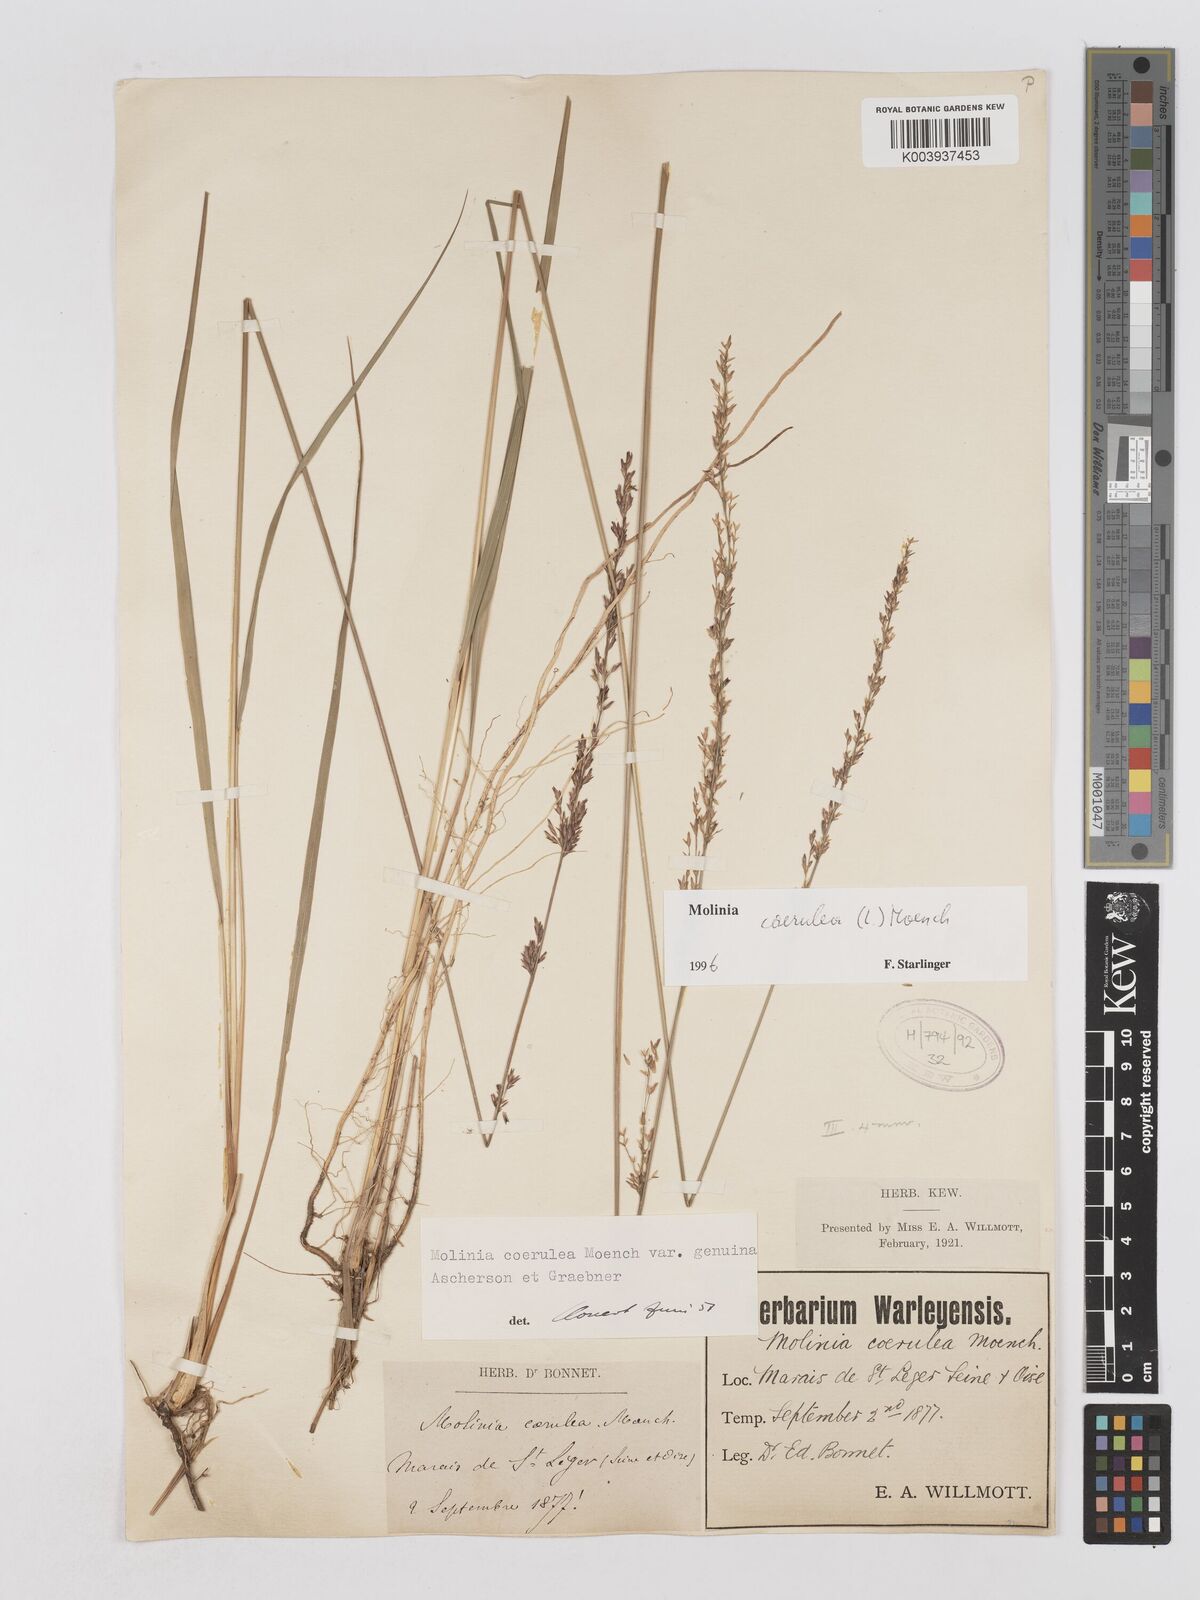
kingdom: Plantae
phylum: Tracheophyta
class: Liliopsida
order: Poales
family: Poaceae
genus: Molinia
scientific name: Molinia caerulea
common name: Purple moor-grass
